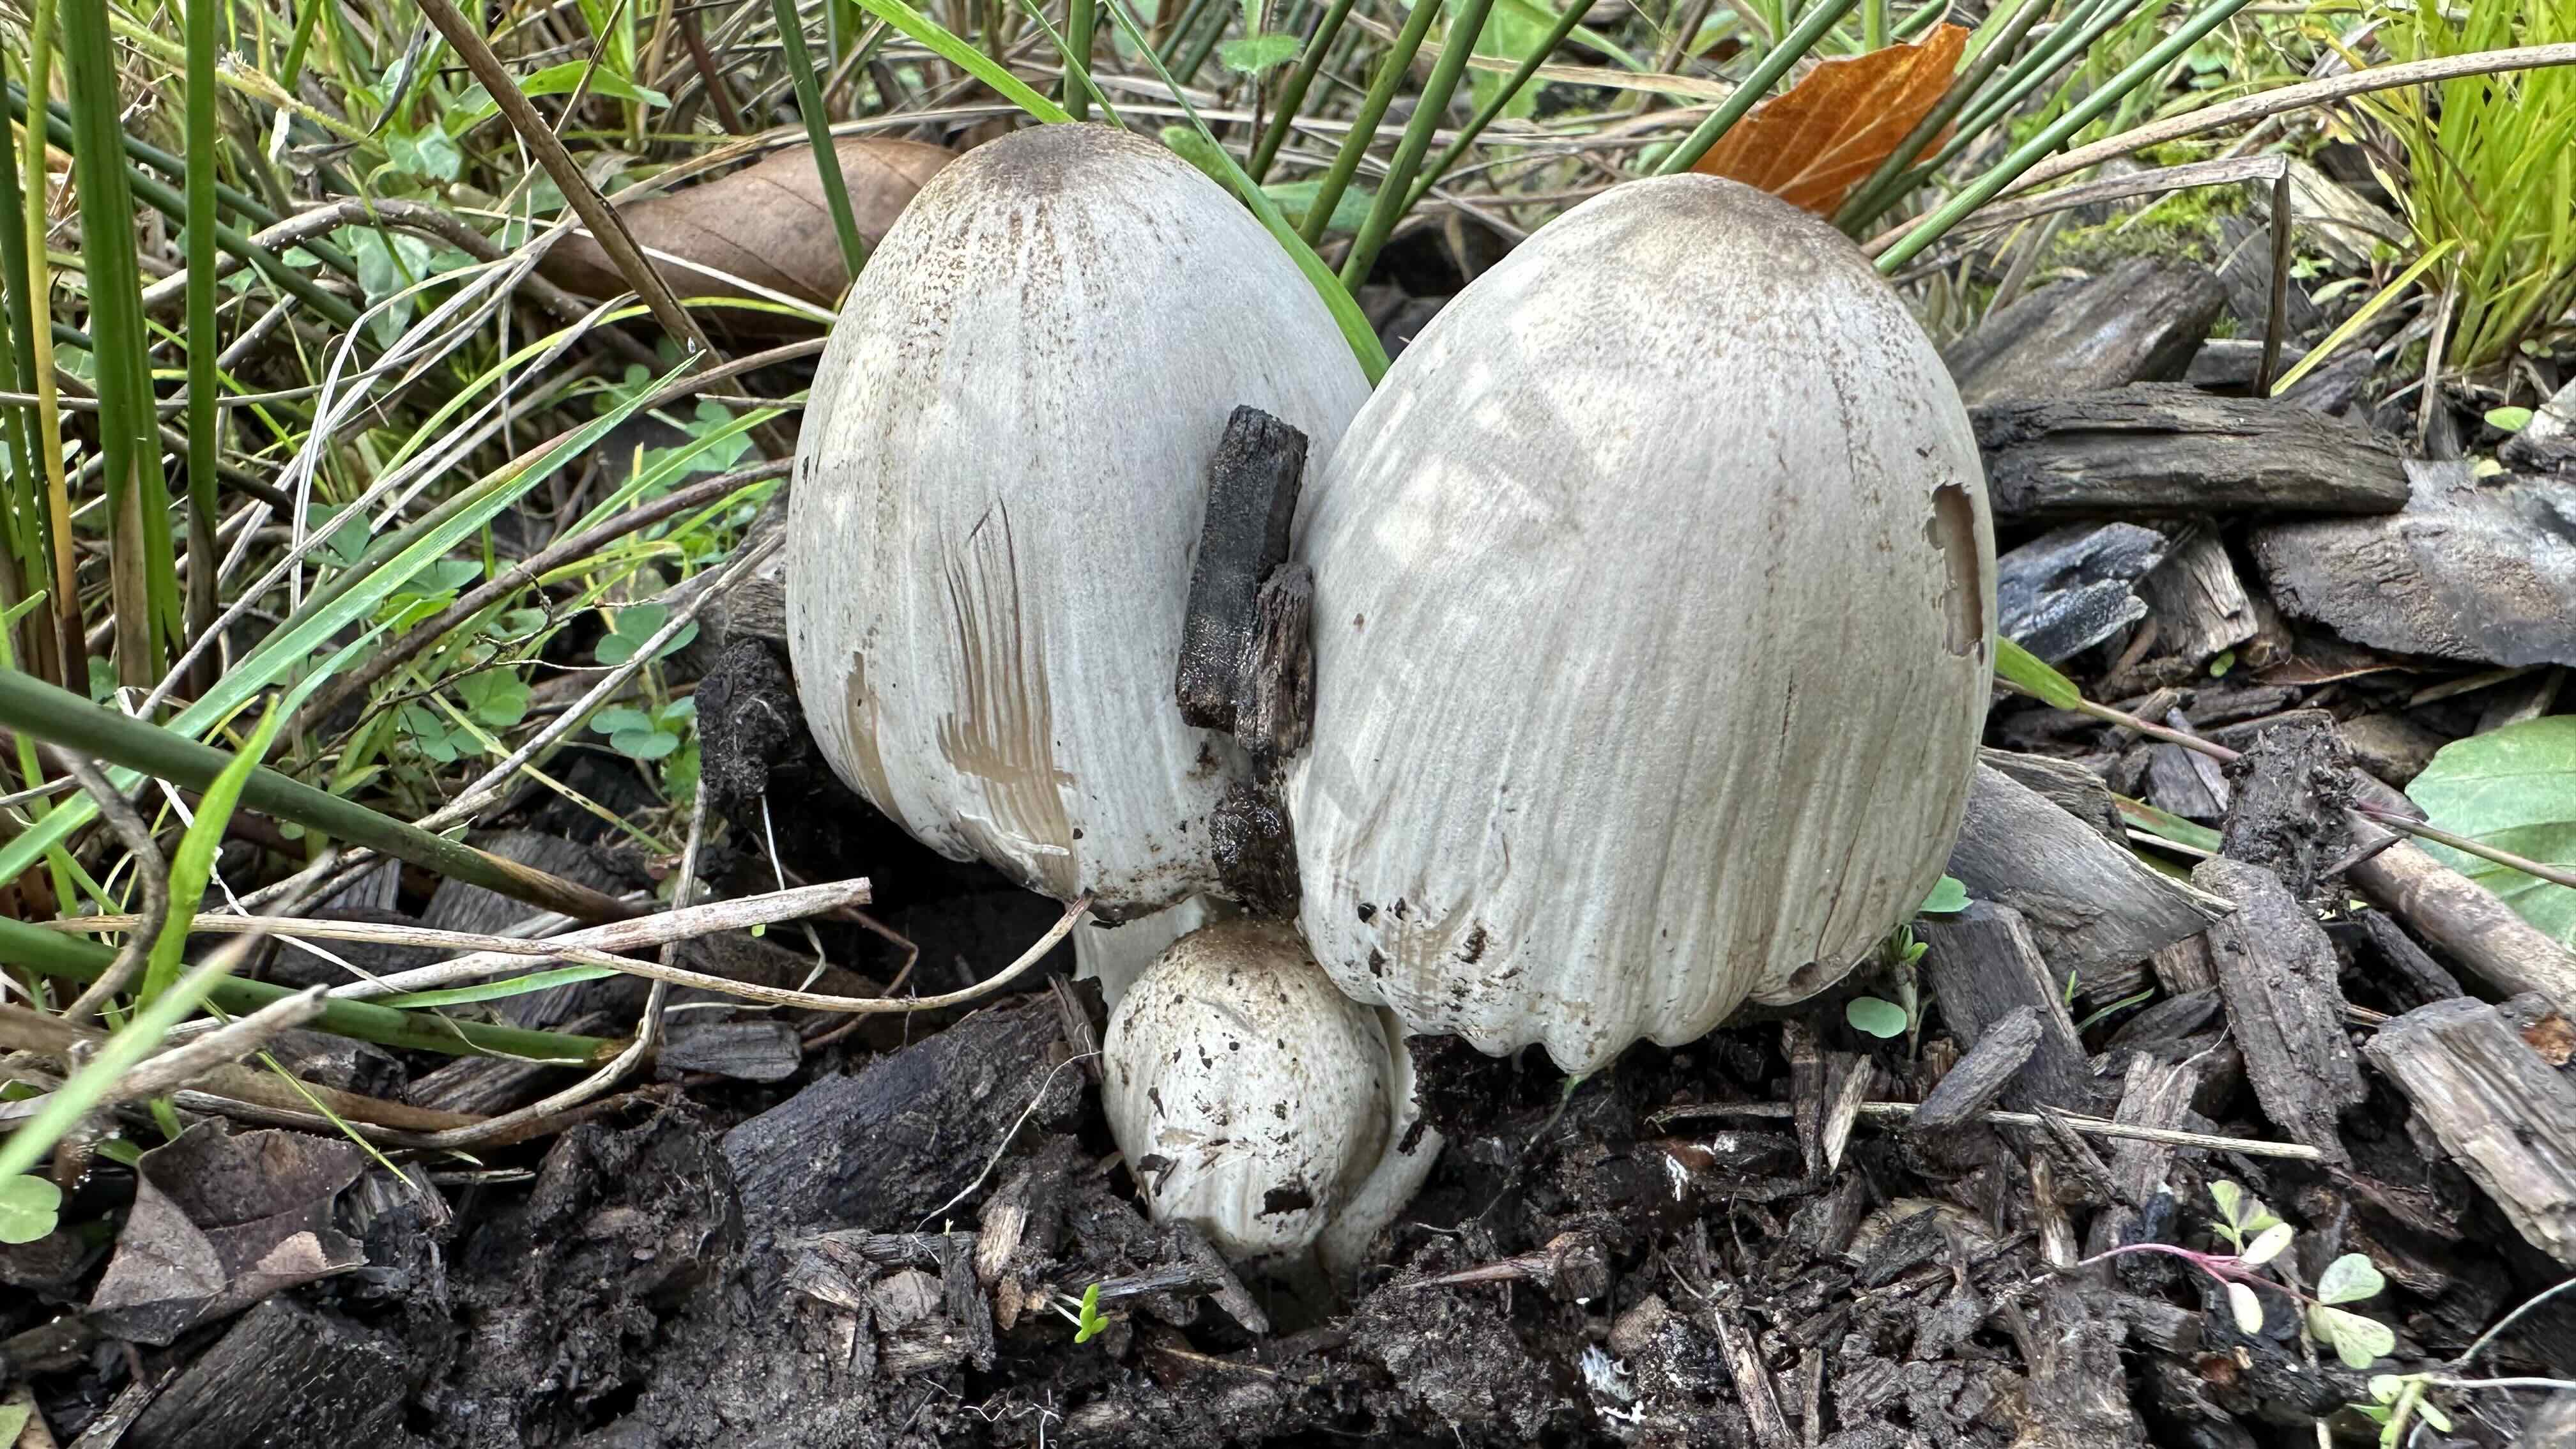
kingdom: Fungi
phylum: Basidiomycota
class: Agaricomycetes
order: Agaricales
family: Psathyrellaceae
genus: Coprinopsis
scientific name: Coprinopsis atramentaria
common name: almindelig blækhat
